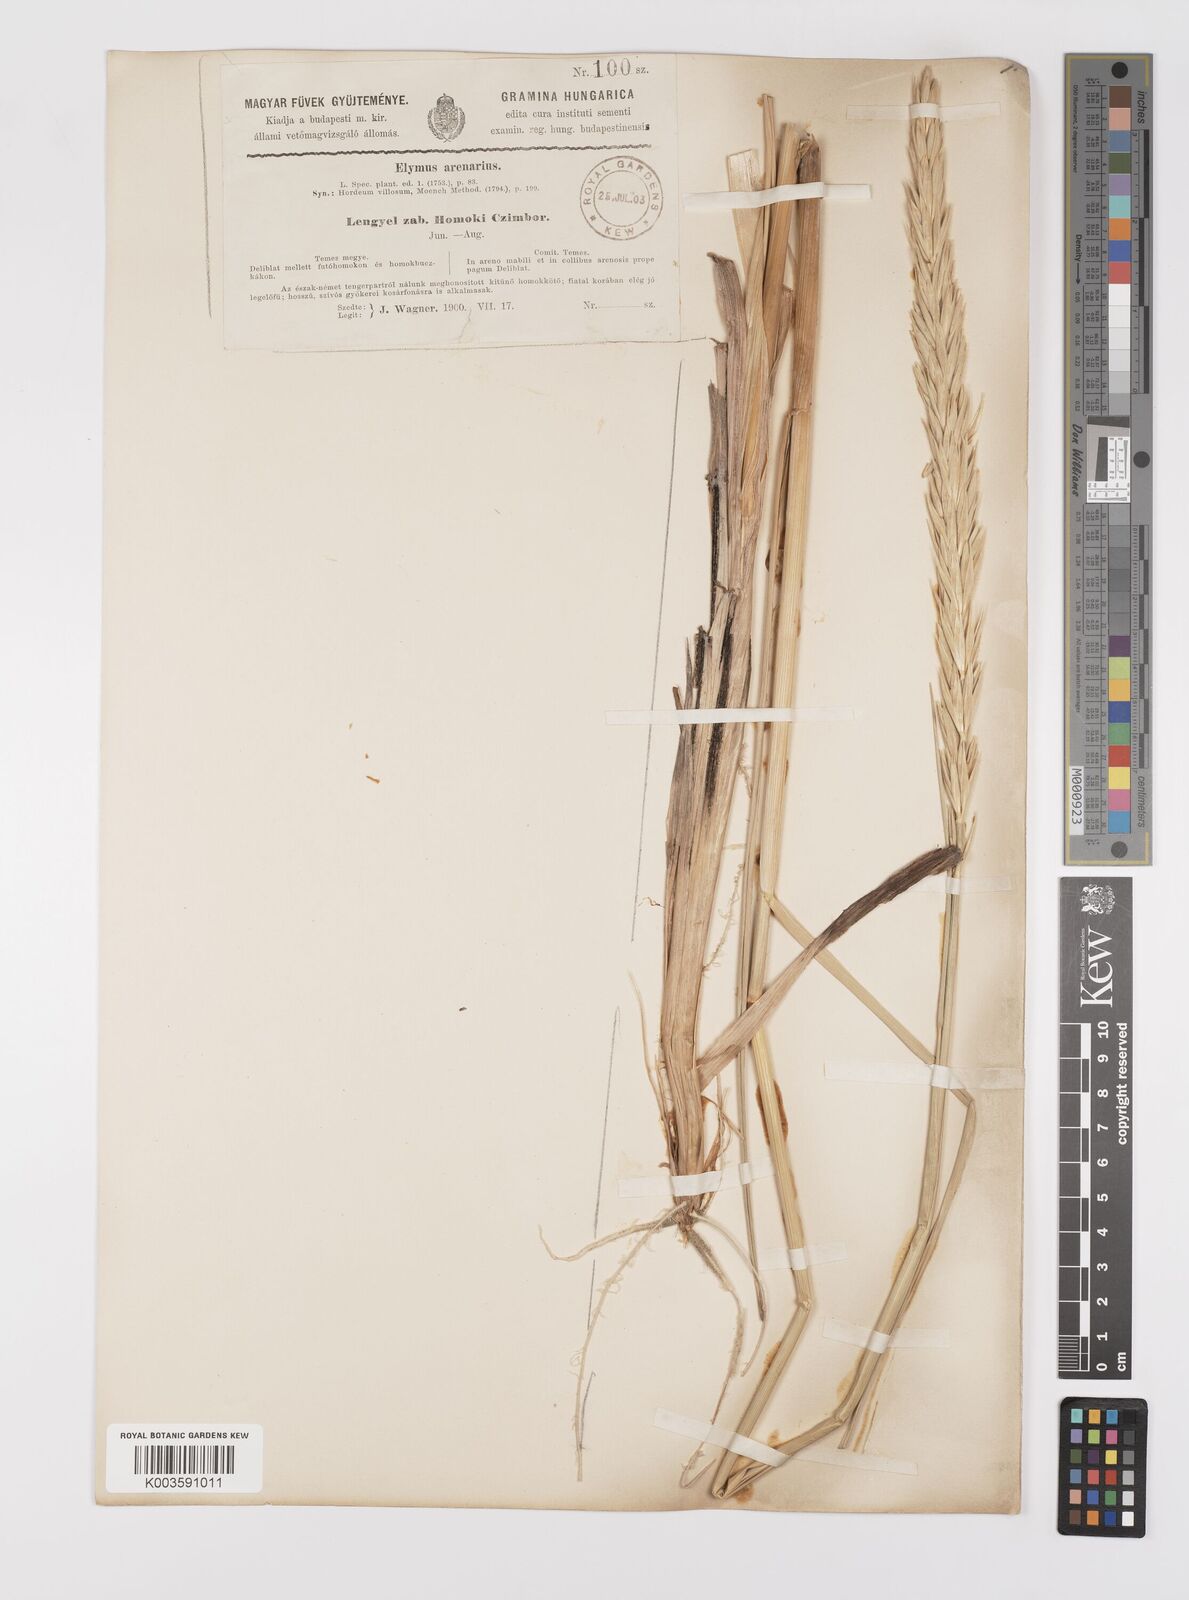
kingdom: Plantae
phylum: Tracheophyta
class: Liliopsida
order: Poales
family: Poaceae
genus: Leymus
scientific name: Leymus arenarius
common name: Lyme-grass
